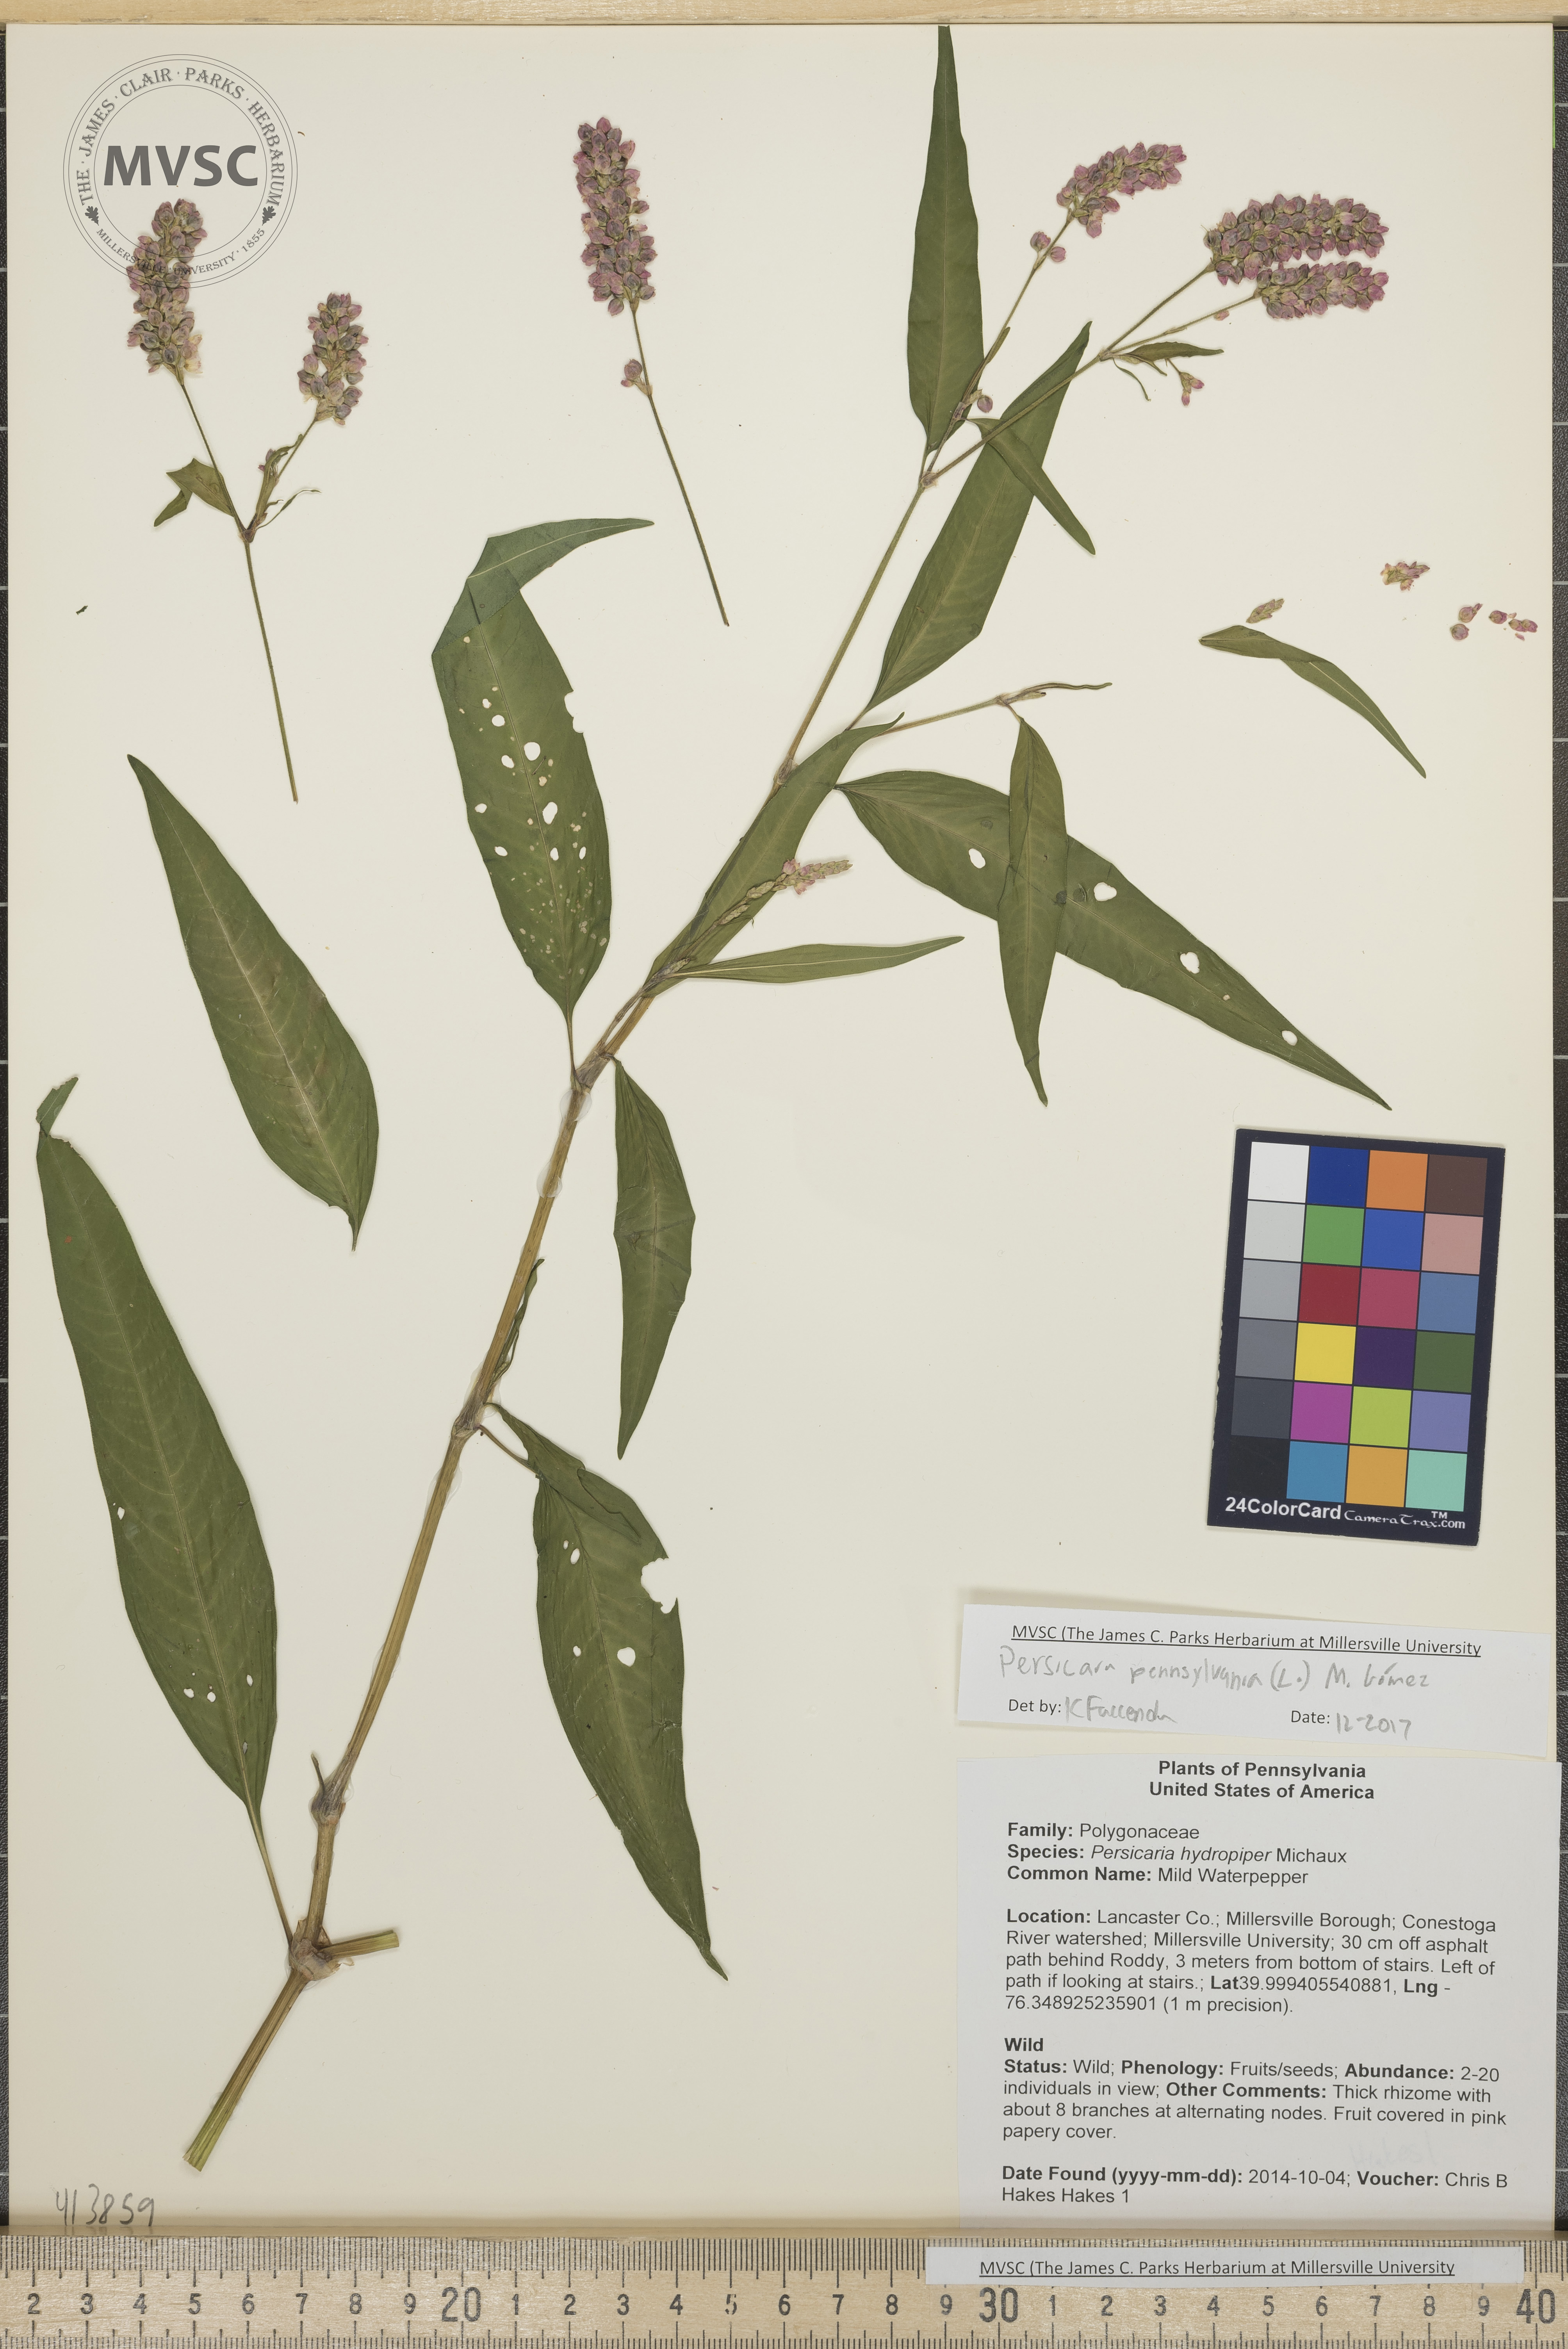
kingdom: Plantae
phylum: Tracheophyta
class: Magnoliopsida
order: Caryophyllales
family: Polygonaceae
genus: Persicaria
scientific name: Persicaria pensylvanica
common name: Pinkweed
